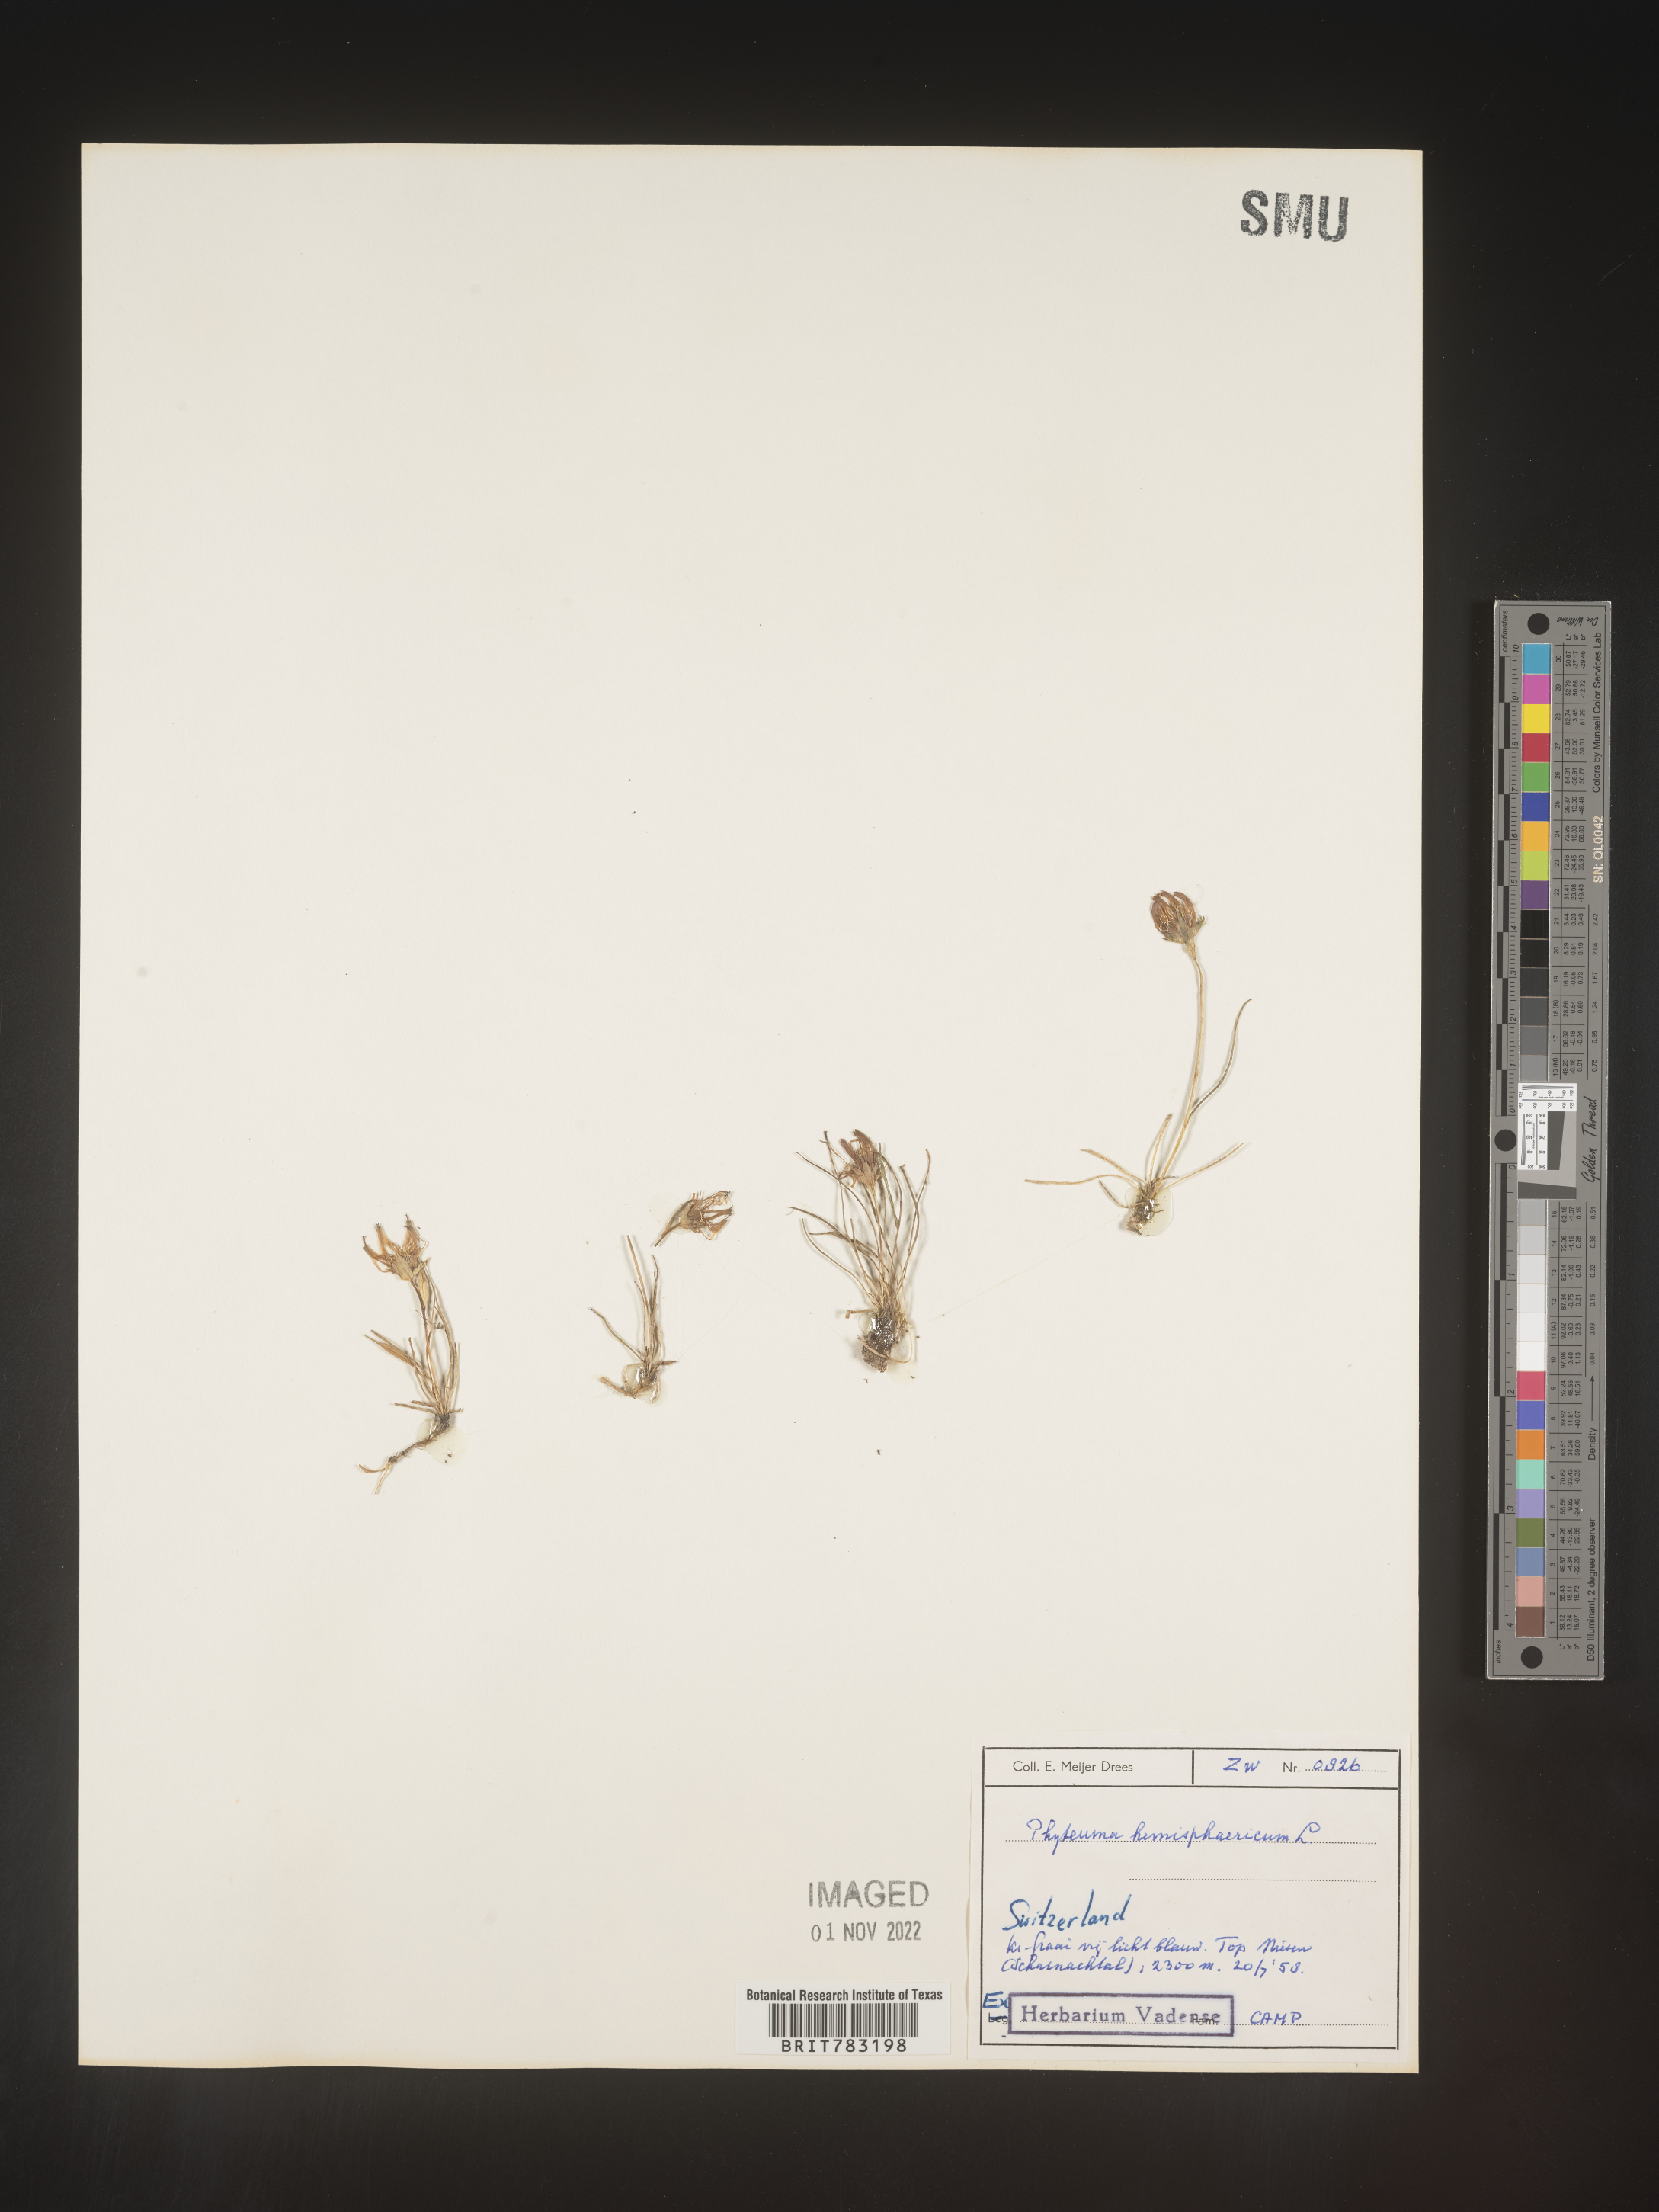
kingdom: Plantae
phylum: Tracheophyta
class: Magnoliopsida
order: Asterales
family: Campanulaceae
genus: Phyteuma
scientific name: Phyteuma
